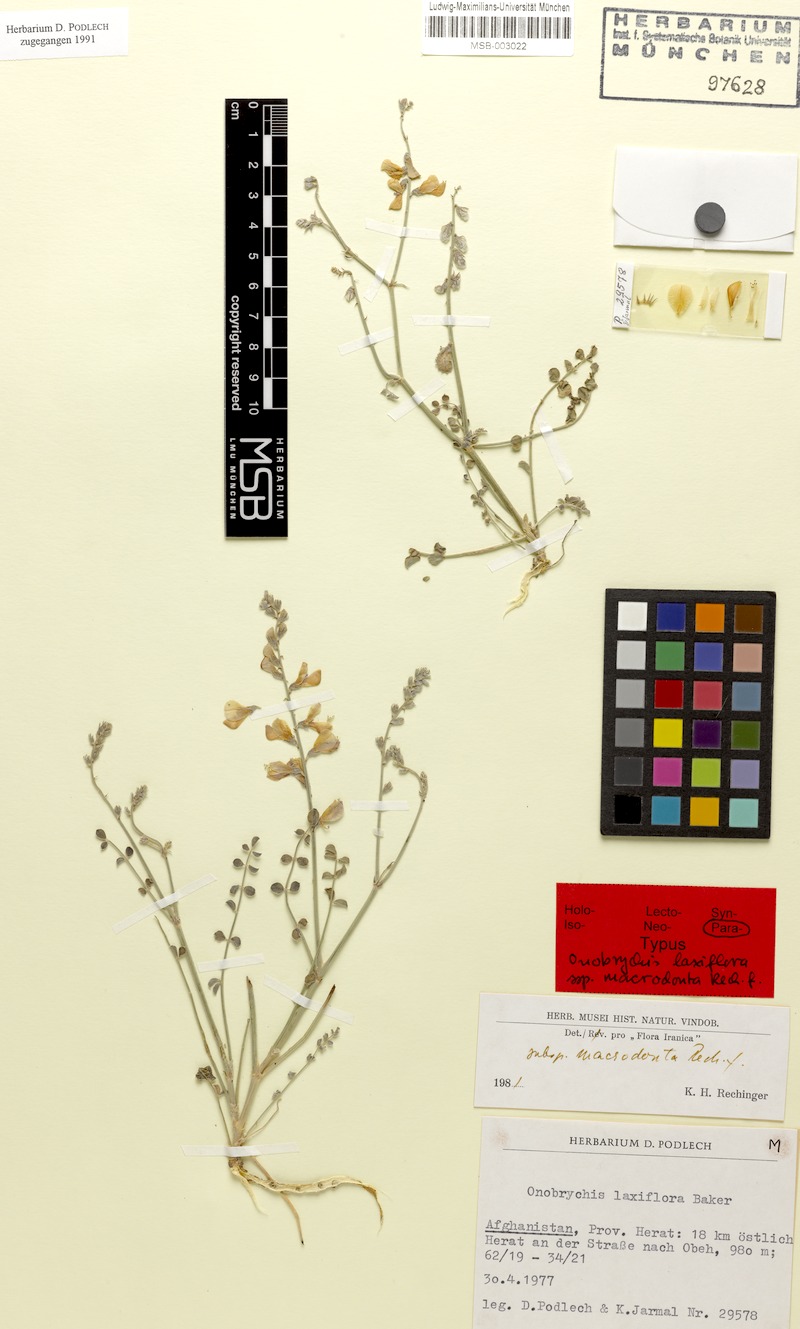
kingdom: Plantae
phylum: Tracheophyta
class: Magnoliopsida
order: Fabales
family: Fabaceae
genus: Onobrychis
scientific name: Onobrychis laxiflora
